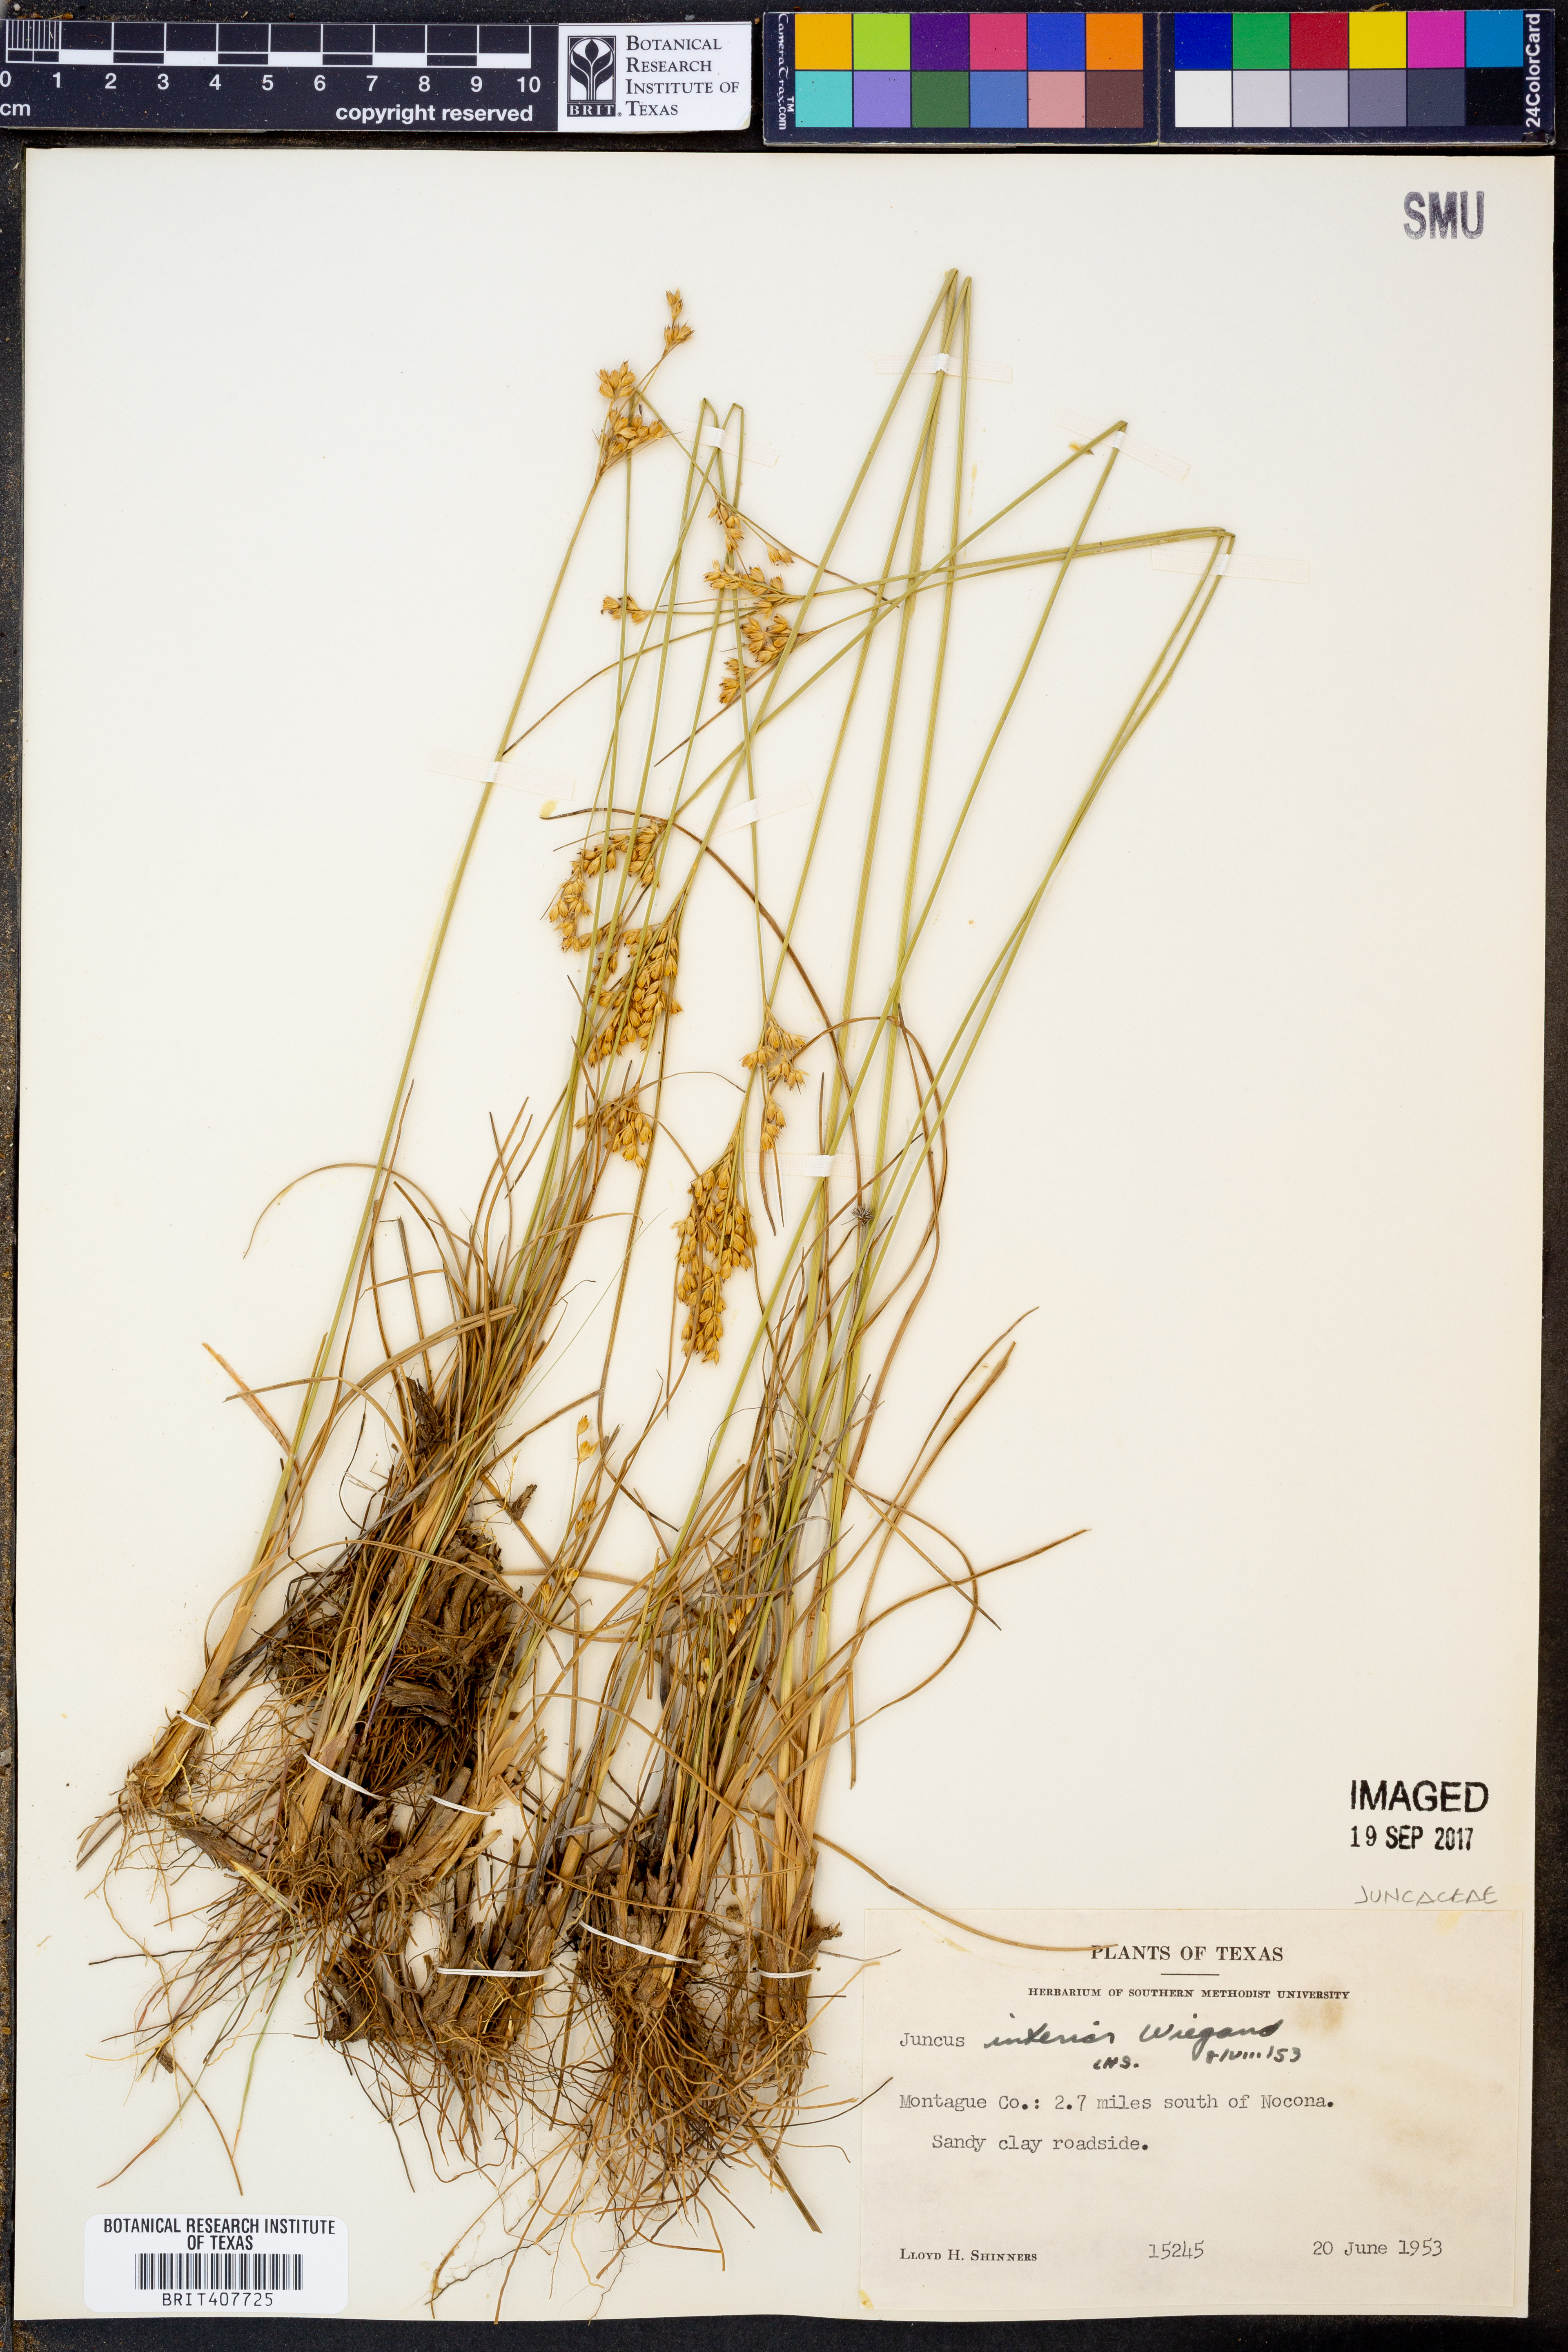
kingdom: Plantae
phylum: Tracheophyta
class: Liliopsida
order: Poales
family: Juncaceae
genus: Juncus
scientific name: Juncus interior
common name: Interior rush
